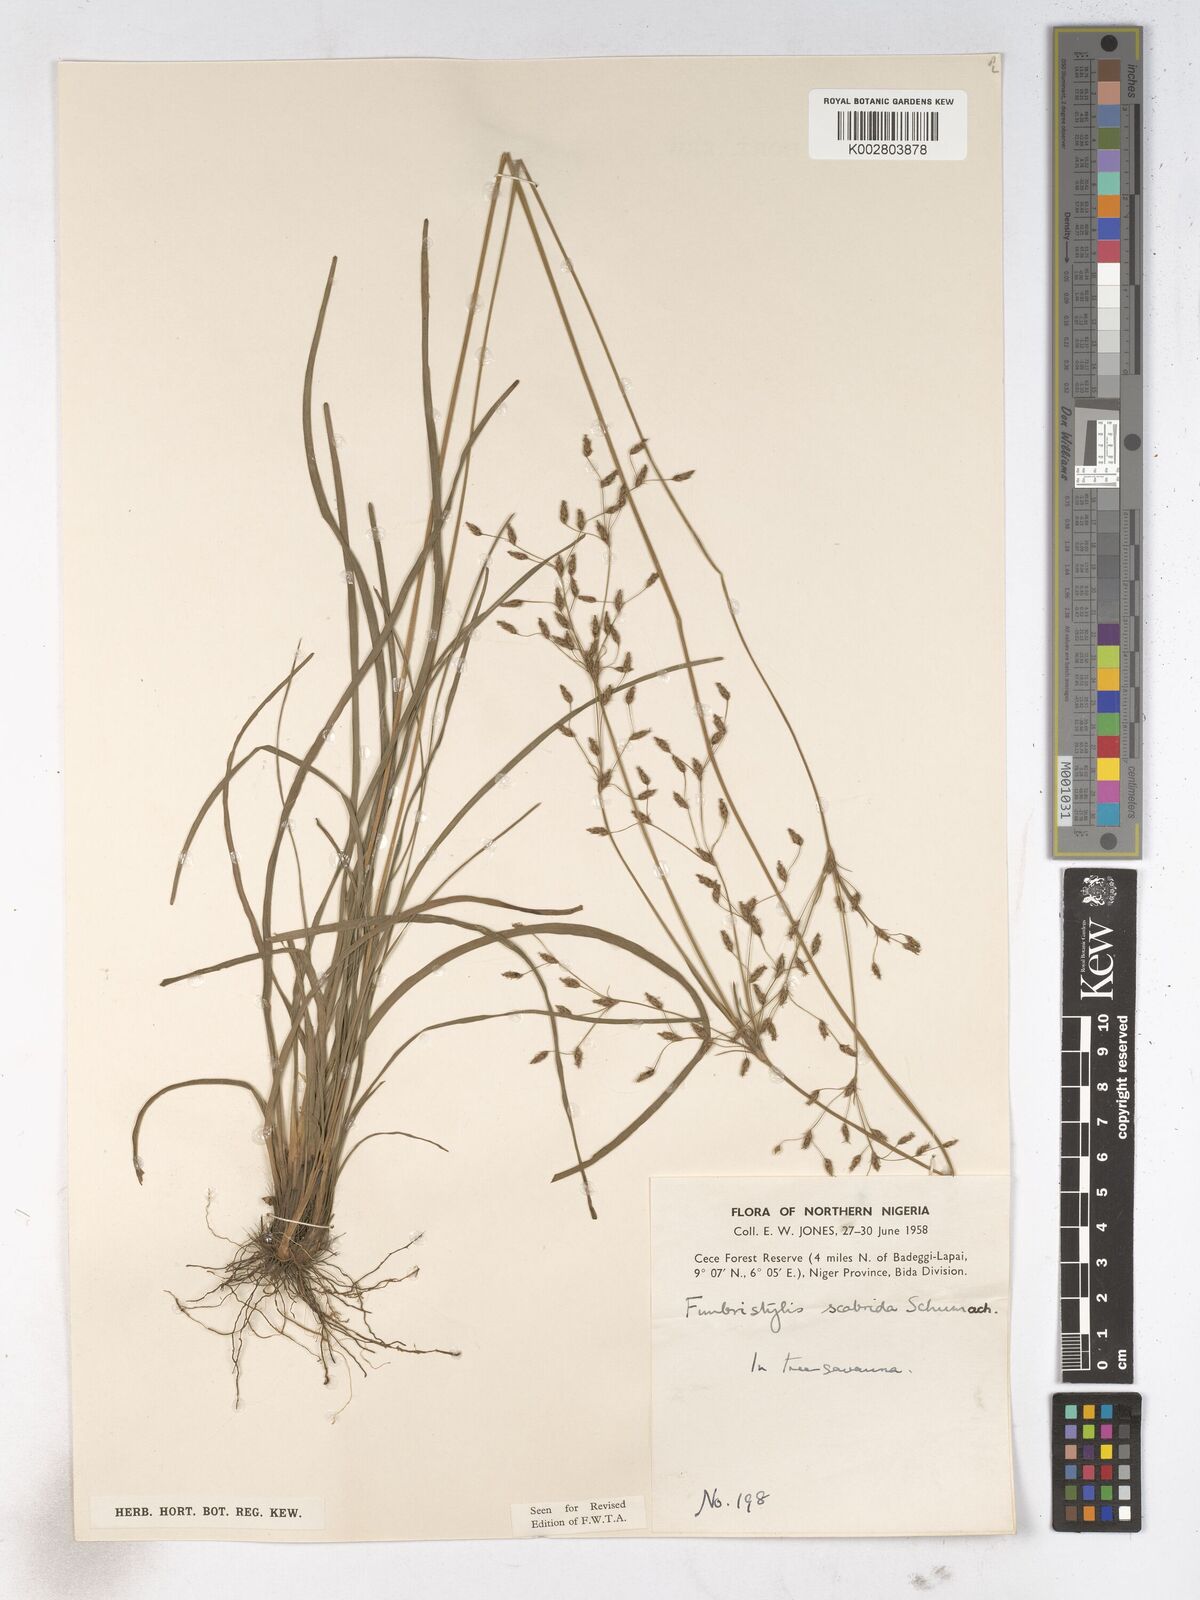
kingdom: Plantae
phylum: Tracheophyta
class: Liliopsida
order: Poales
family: Cyperaceae
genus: Fimbristylis
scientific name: Fimbristylis scabrida
